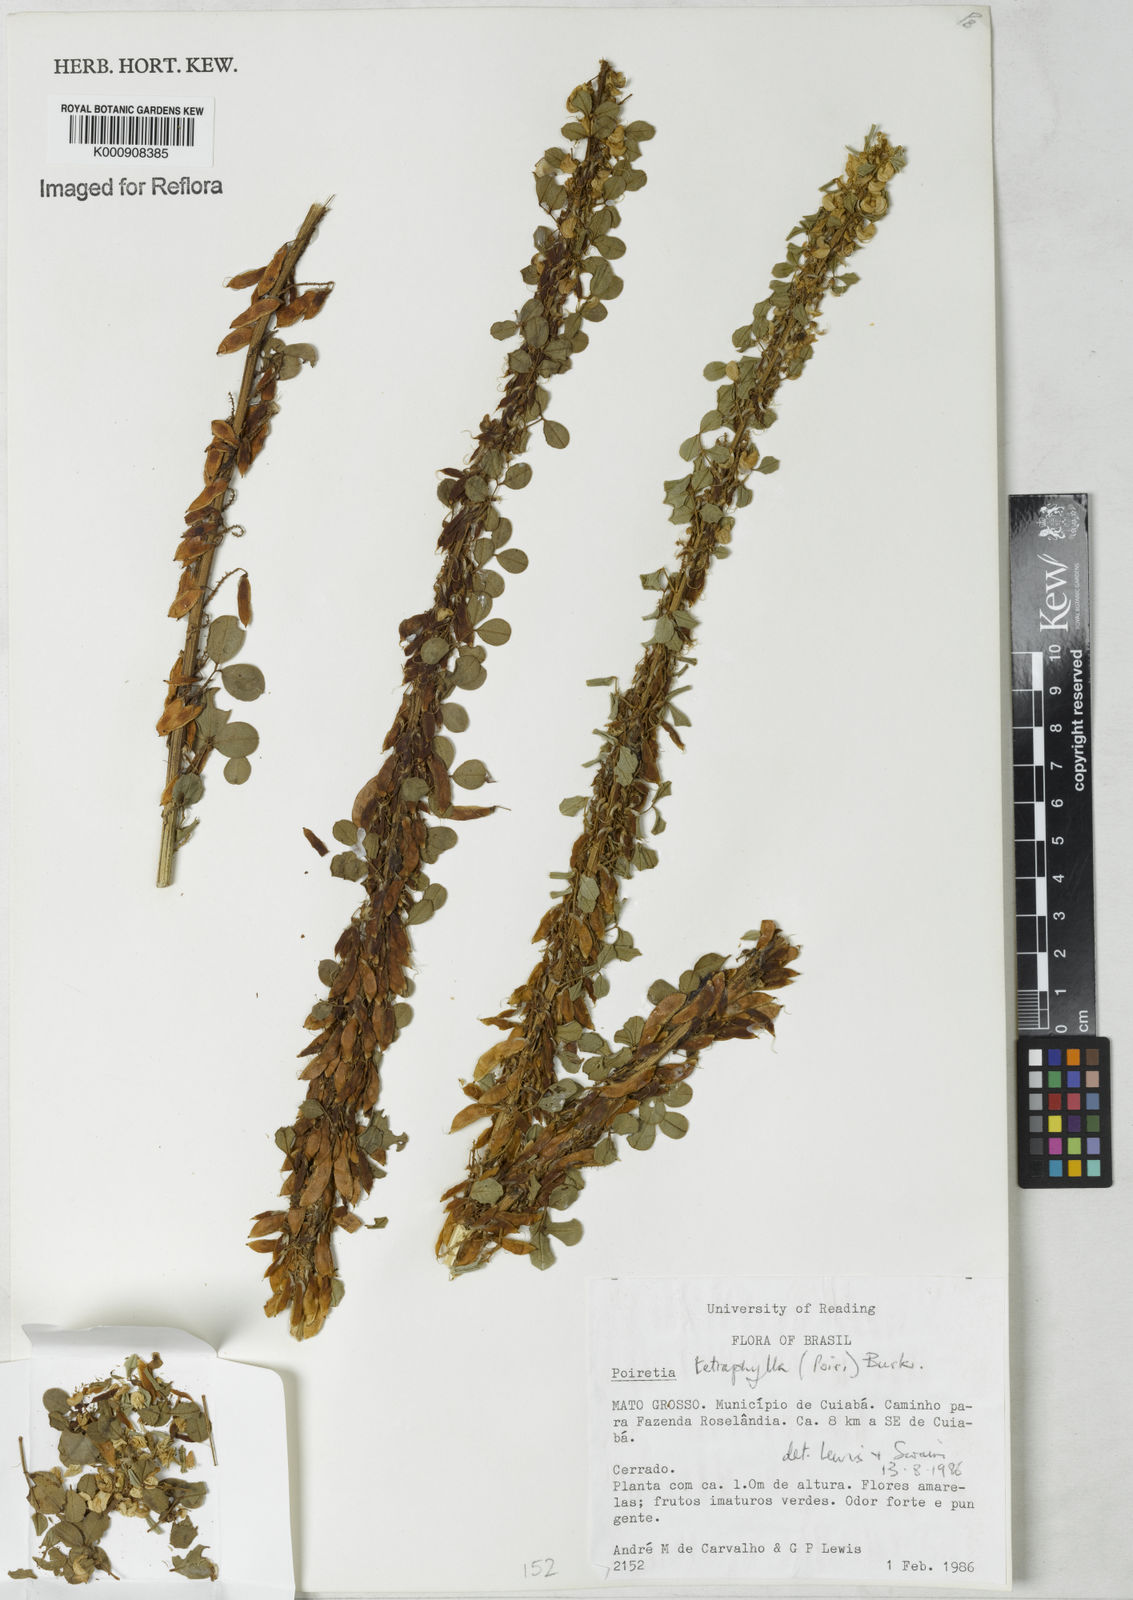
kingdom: Plantae
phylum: Tracheophyta
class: Magnoliopsida
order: Fabales
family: Fabaceae
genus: Poiretia
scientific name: Poiretia tetraphylla
